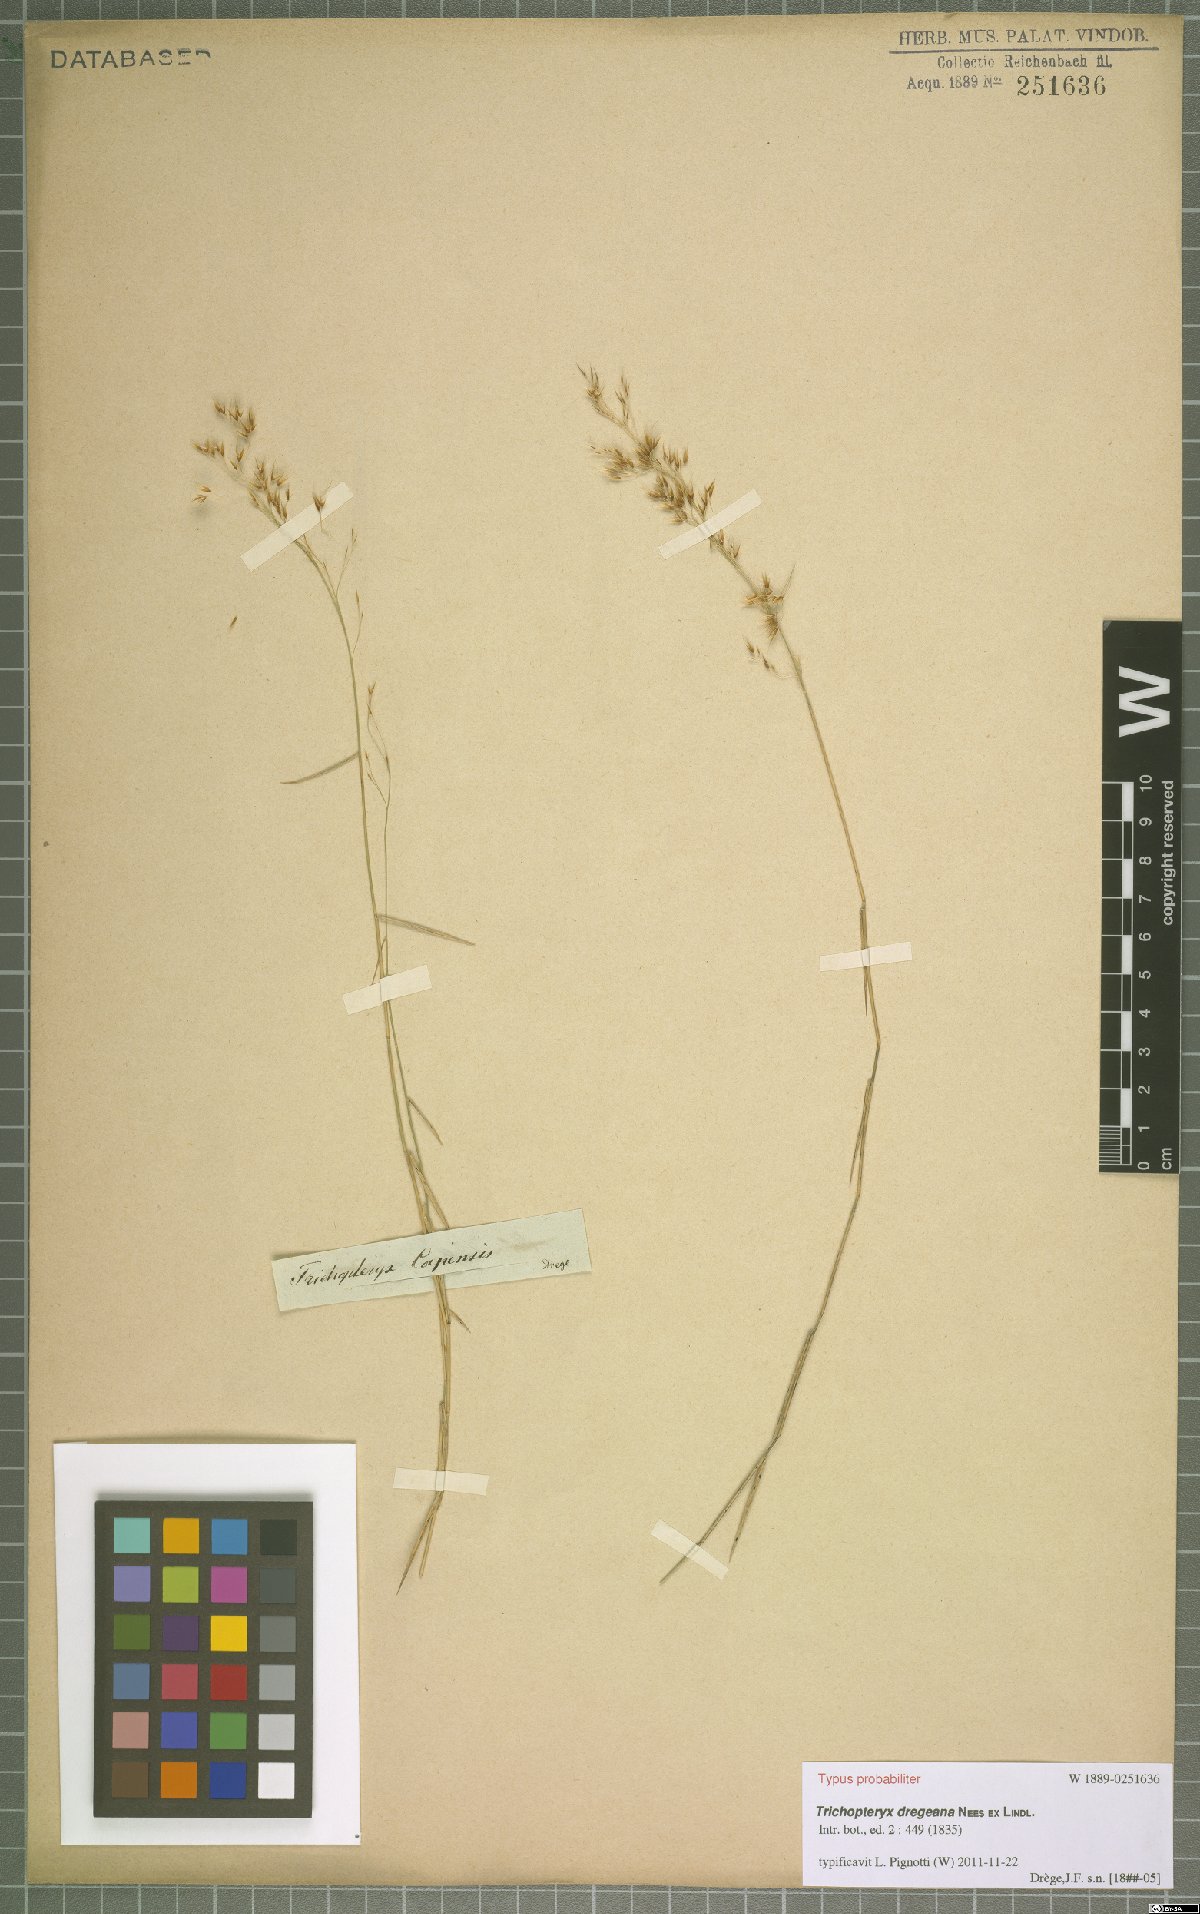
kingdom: Plantae
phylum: Tracheophyta
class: Liliopsida
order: Poales
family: Poaceae
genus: Trichopteryx
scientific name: Trichopteryx dregeana
